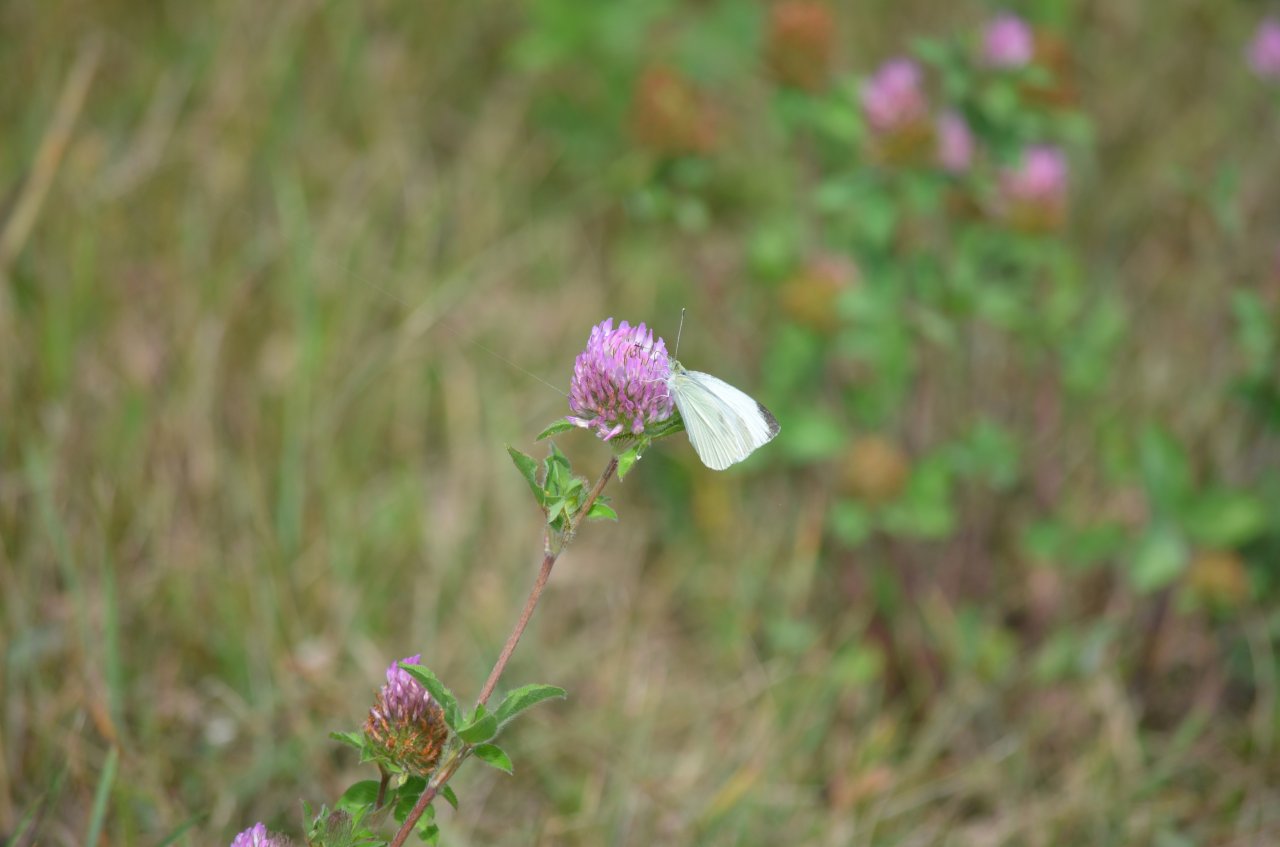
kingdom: Animalia
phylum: Arthropoda
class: Insecta
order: Lepidoptera
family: Pieridae
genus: Pieris
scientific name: Pieris rapae
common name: Cabbage White
